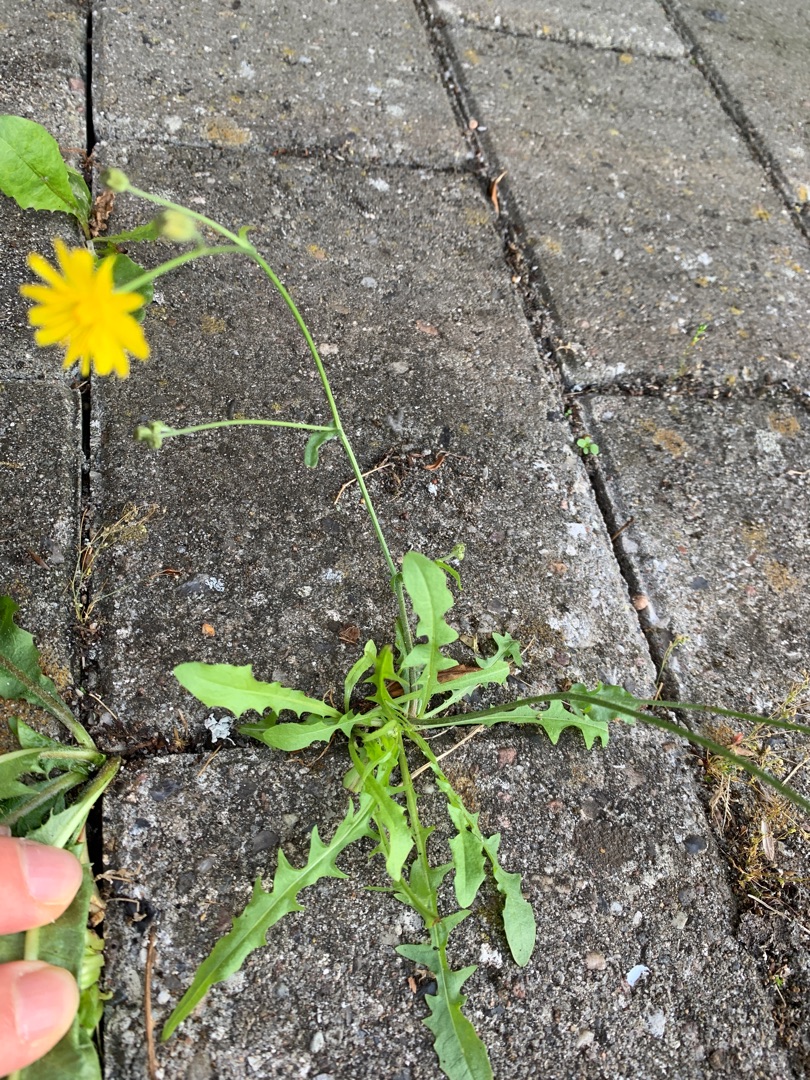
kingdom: Plantae
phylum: Tracheophyta
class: Magnoliopsida
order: Asterales
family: Asteraceae
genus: Crepis
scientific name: Crepis capillaris
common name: Grøn høgeskæg
